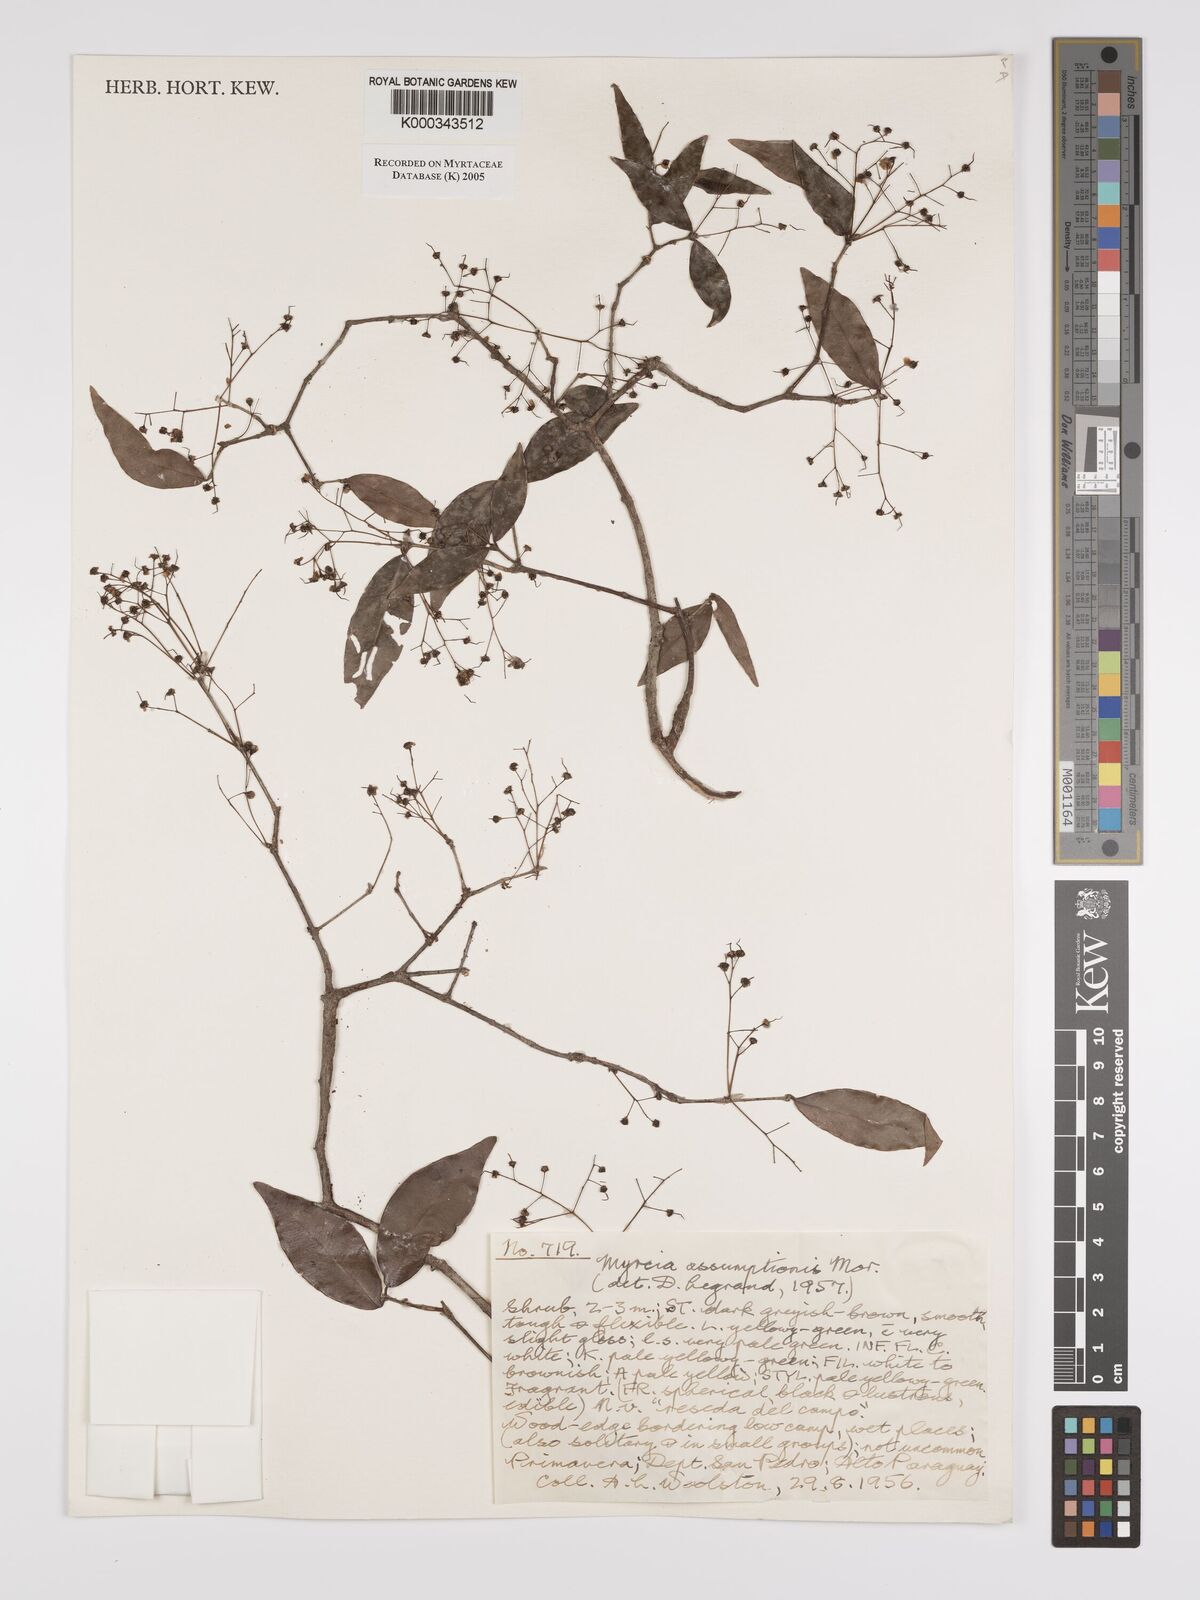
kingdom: Plantae
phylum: Tracheophyta
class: Magnoliopsida
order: Myrtales
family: Myrtaceae
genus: Myrcia
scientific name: Myrcia laruotteana
